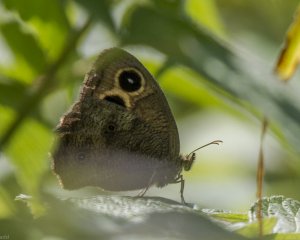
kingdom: Animalia
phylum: Arthropoda
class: Insecta
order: Lepidoptera
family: Nymphalidae
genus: Cercyonis
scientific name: Cercyonis pegala
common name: Common Wood-Nymph
